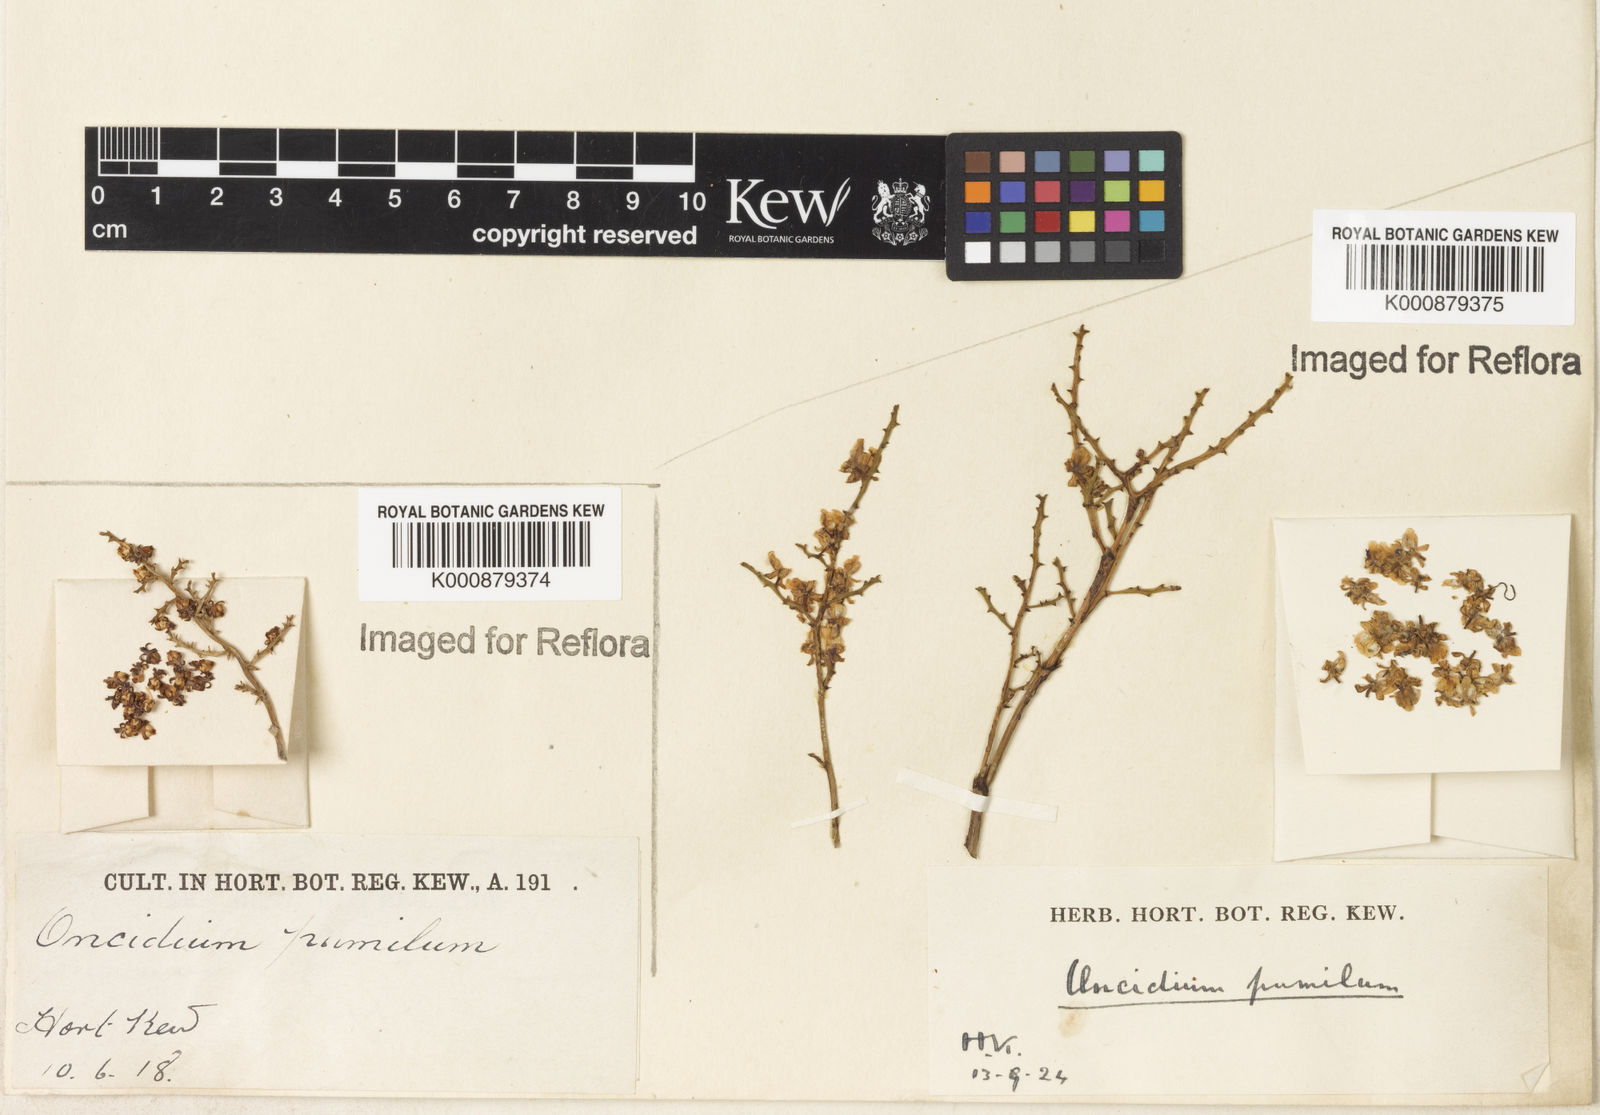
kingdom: Plantae
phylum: Tracheophyta
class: Liliopsida
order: Asparagales
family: Orchidaceae
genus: Trichocentrum
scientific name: Trichocentrum pumilum
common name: Mule-ear orchid
